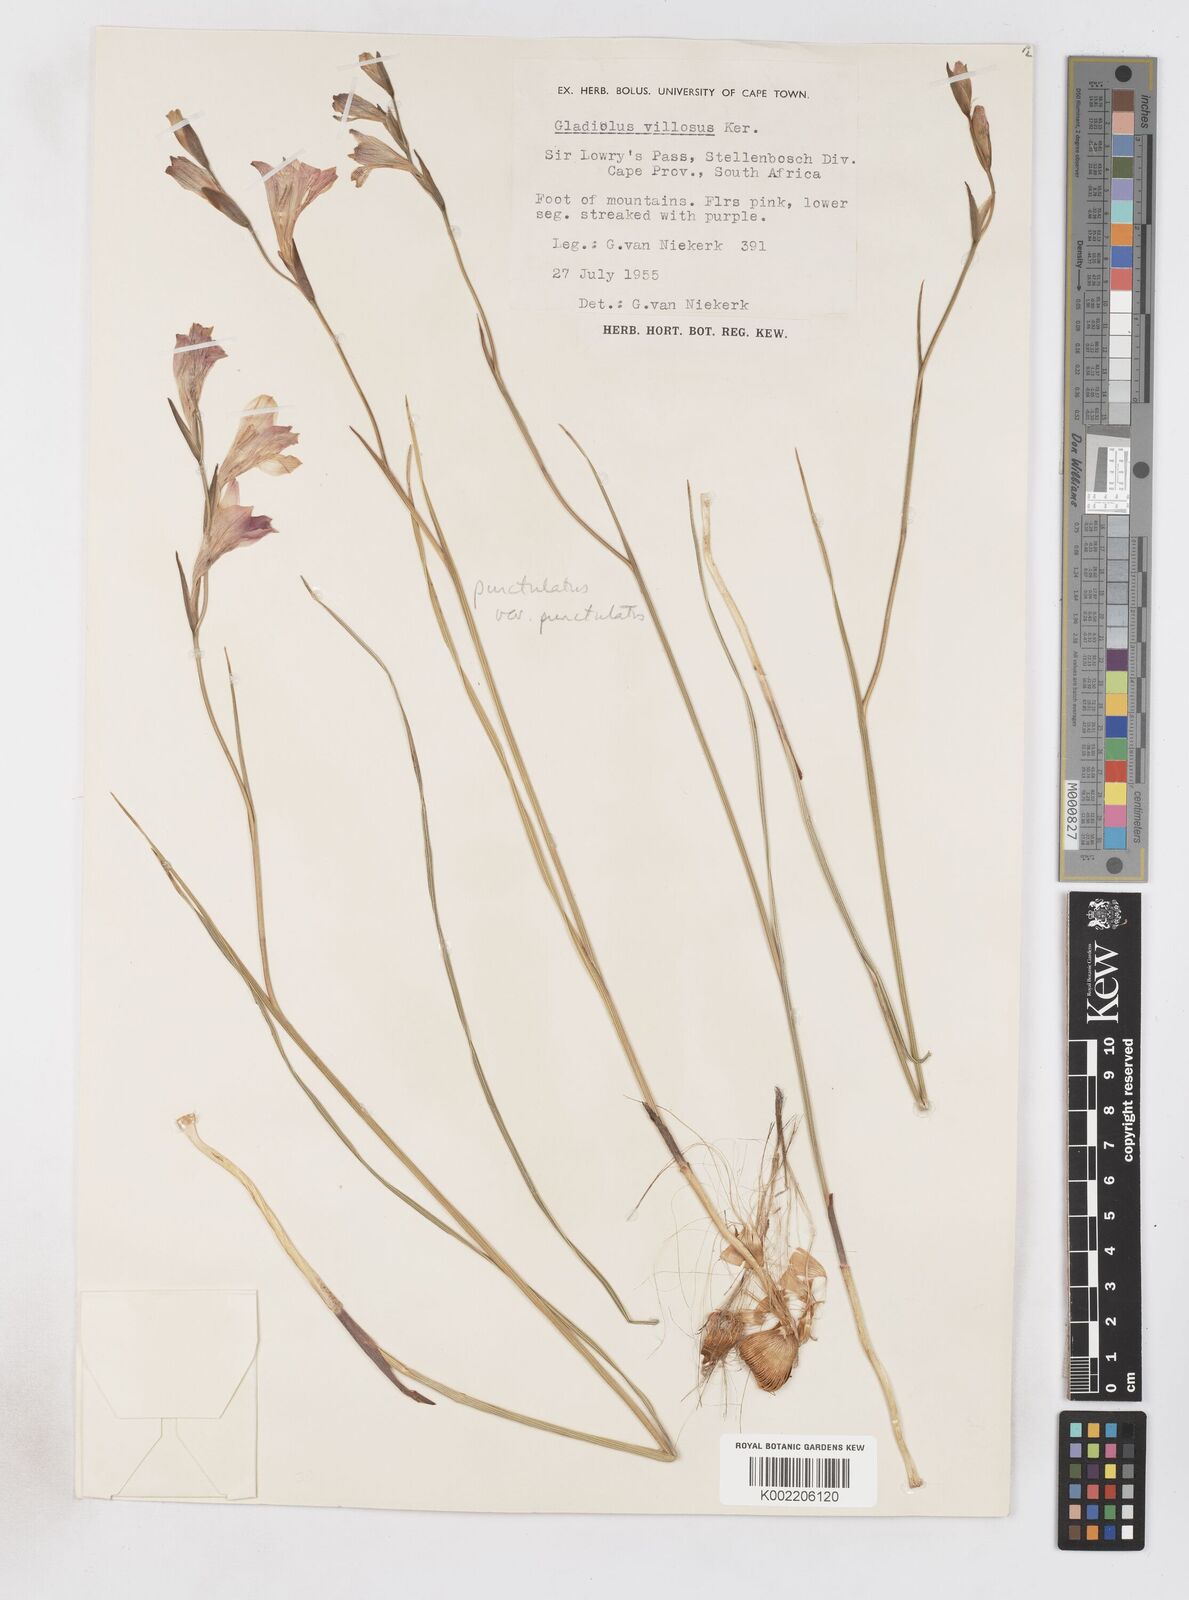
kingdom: Plantae
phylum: Tracheophyta
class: Liliopsida
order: Asparagales
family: Iridaceae
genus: Gladiolus
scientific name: Gladiolus hirsutus
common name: Small pink afrikaner
